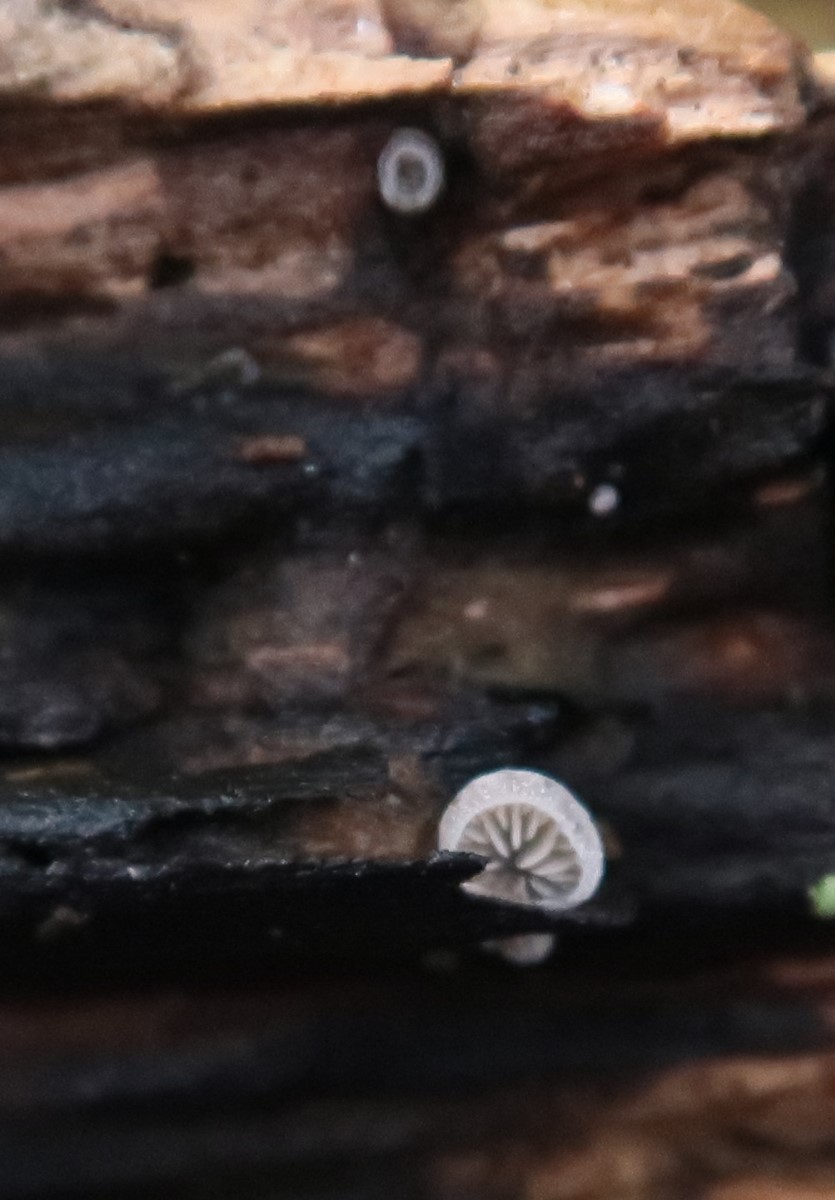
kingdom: Fungi
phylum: Basidiomycota
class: Agaricomycetes
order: Agaricales
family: Pleurotaceae
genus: Resupinatus
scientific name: Resupinatus applicatus
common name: lysfiltet barkhat
